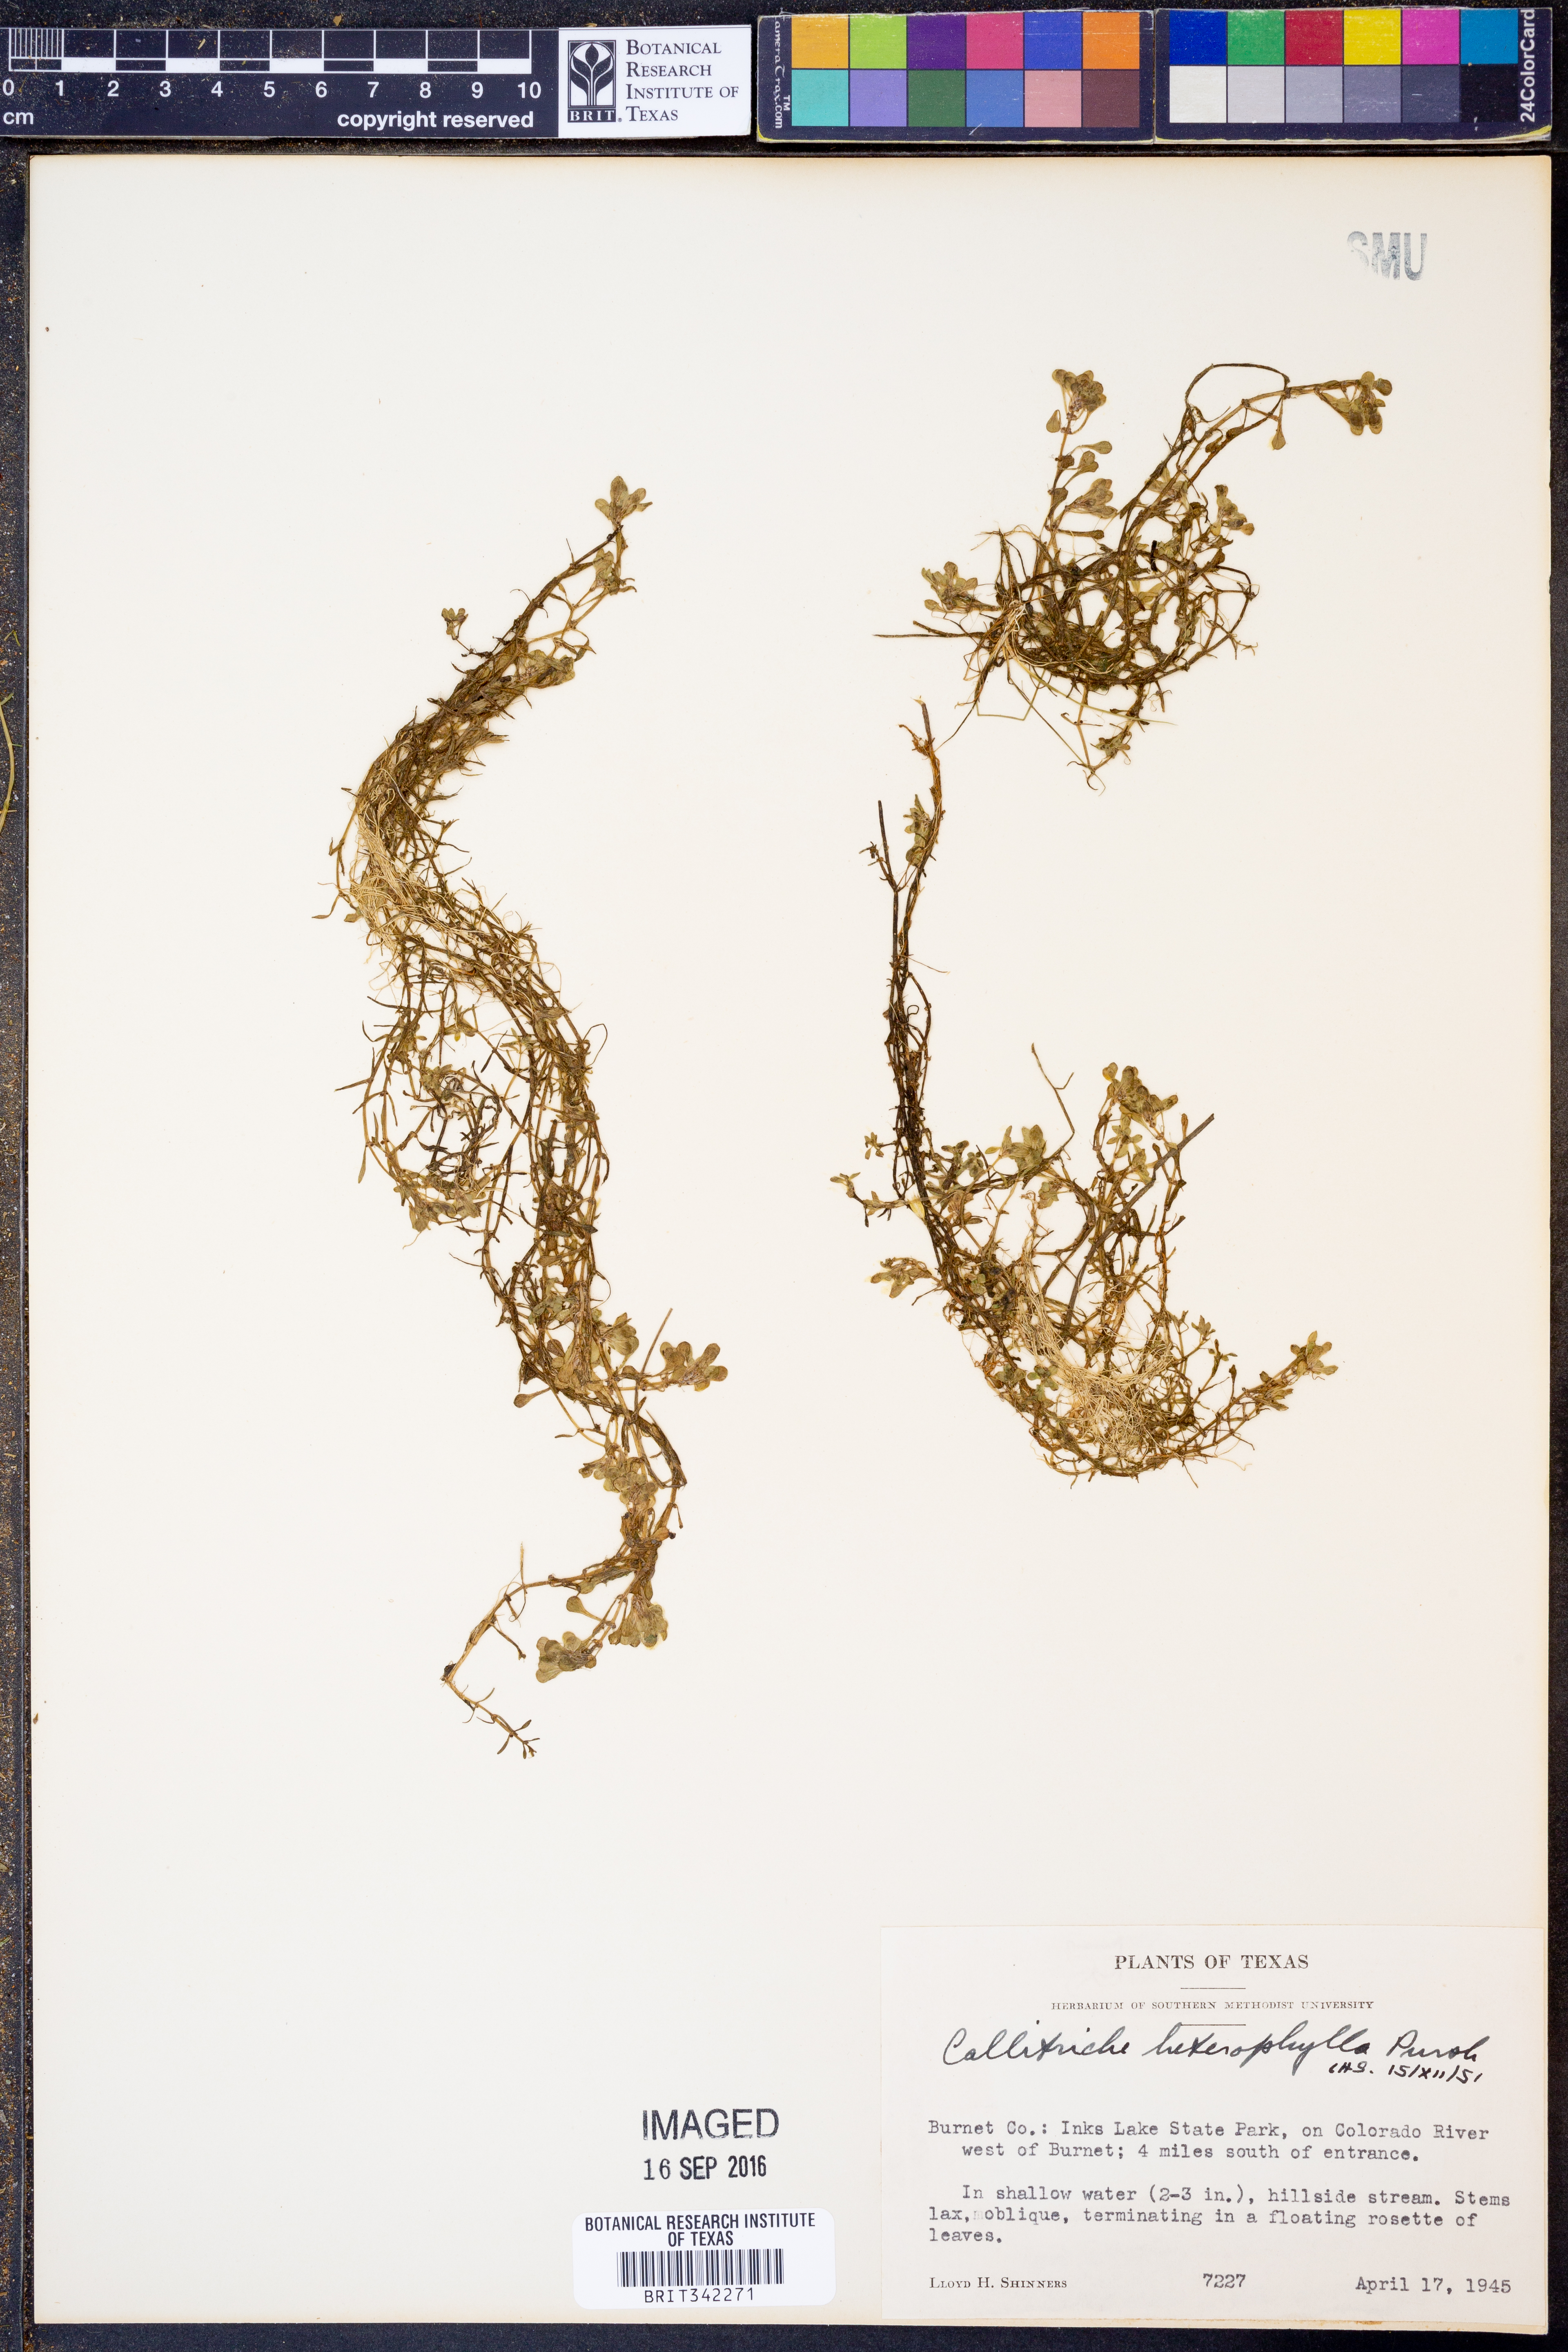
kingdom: Plantae
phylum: Tracheophyta
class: Magnoliopsida
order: Lamiales
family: Plantaginaceae
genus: Callitriche
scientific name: Callitriche heterophylla
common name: Two-headed water-starwort
